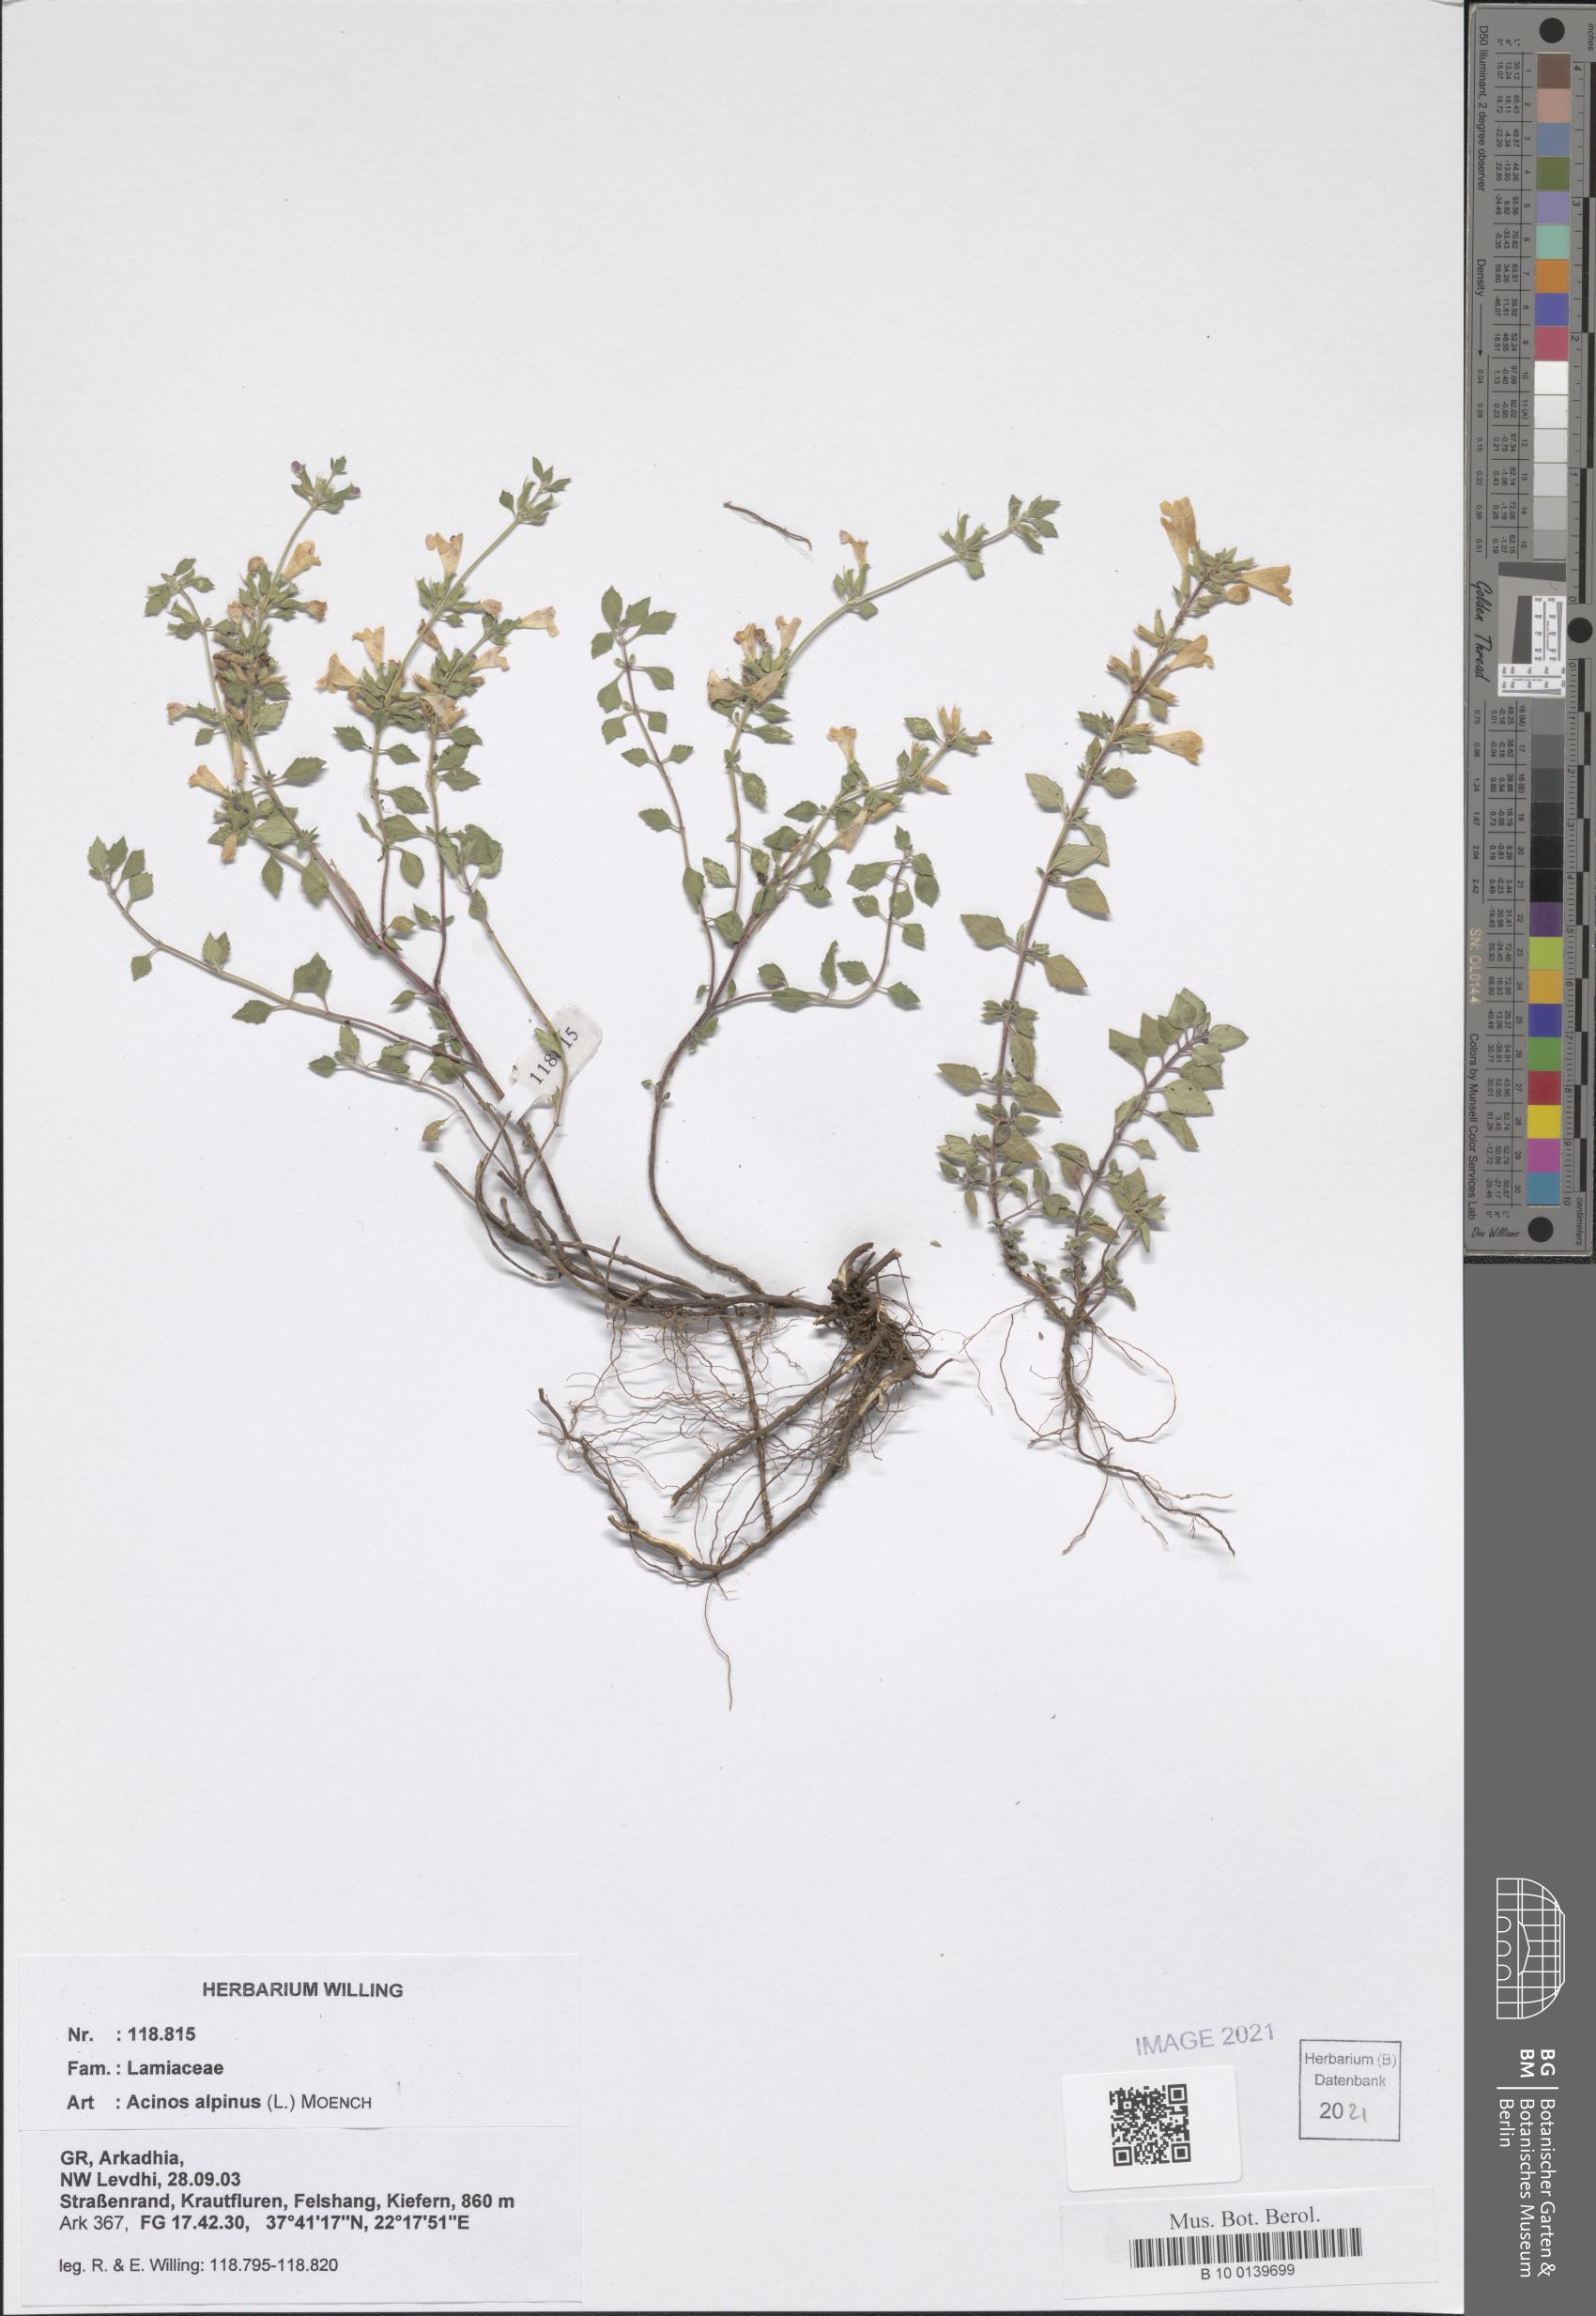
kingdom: Plantae
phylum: Tracheophyta
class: Magnoliopsida
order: Lamiales
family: Lamiaceae
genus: Clinopodium
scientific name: Clinopodium alpinum
